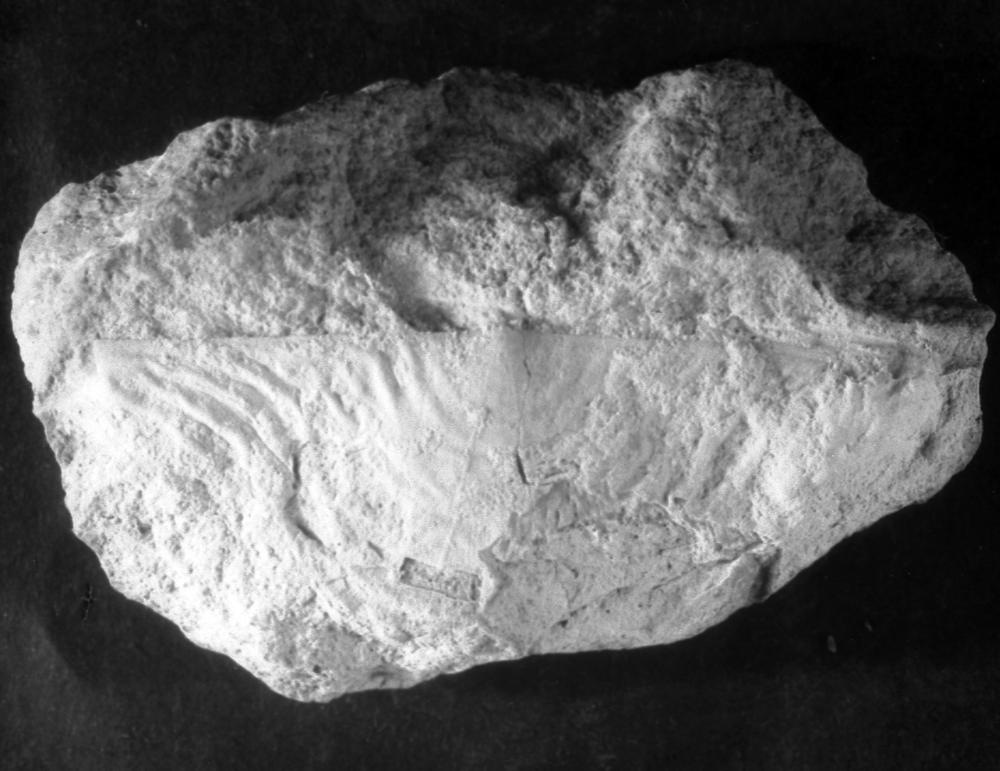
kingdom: Animalia
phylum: Brachiopoda
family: Strophomenidae
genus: Leptaena
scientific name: Leptaena
